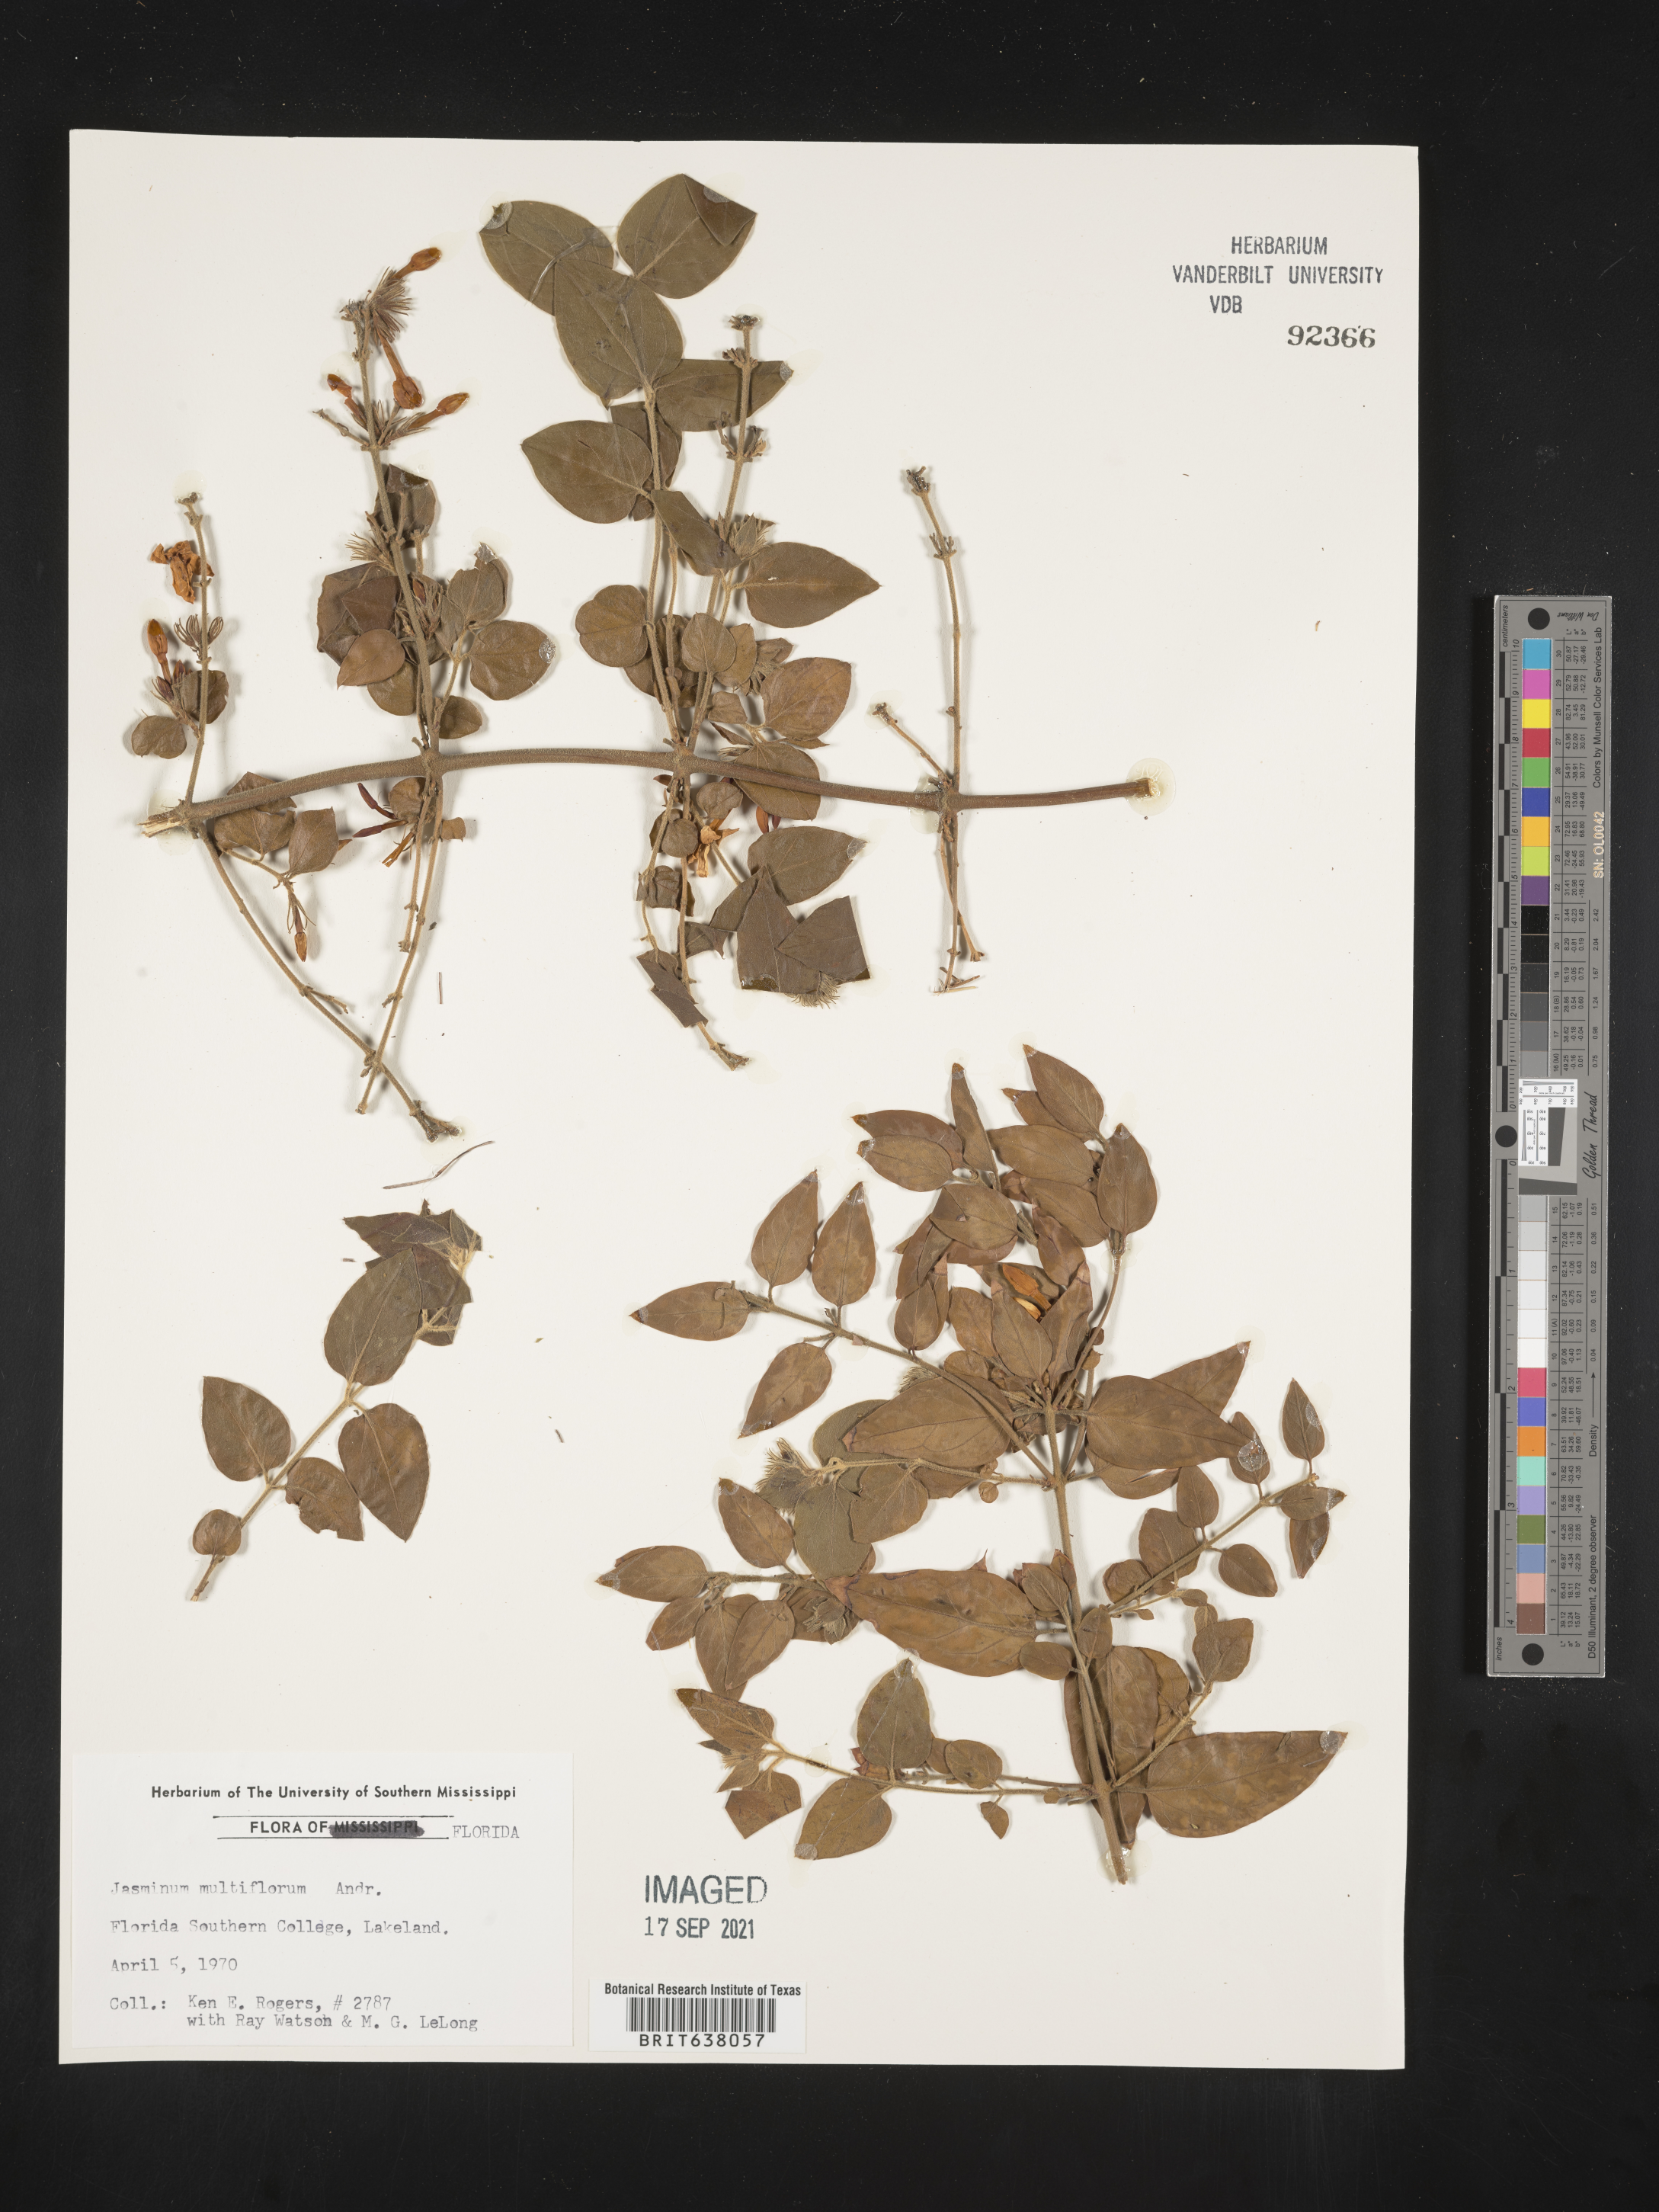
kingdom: Plantae
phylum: Tracheophyta
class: Magnoliopsida
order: Lamiales
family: Oleaceae
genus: Jasminum
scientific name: Jasminum
